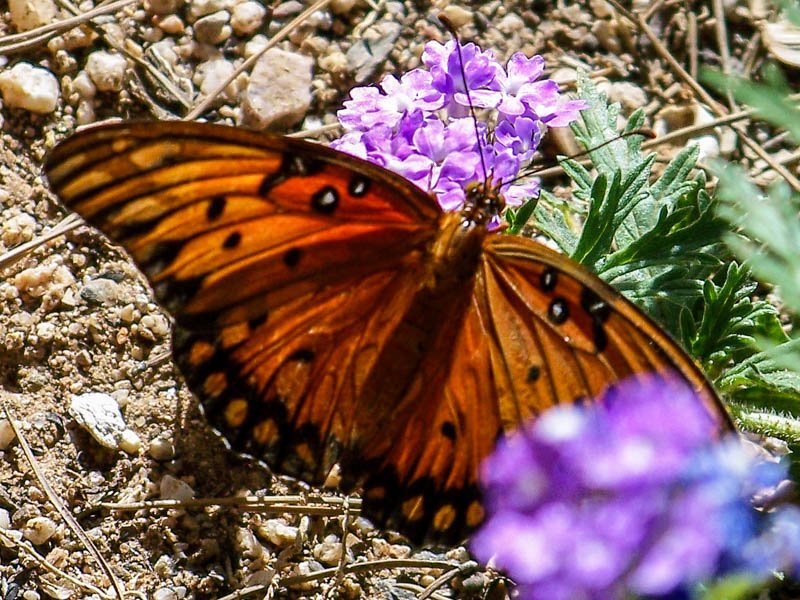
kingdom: Animalia
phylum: Arthropoda
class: Insecta
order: Lepidoptera
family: Nymphalidae
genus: Dione
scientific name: Dione vanillae
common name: Gulf Fritillary
